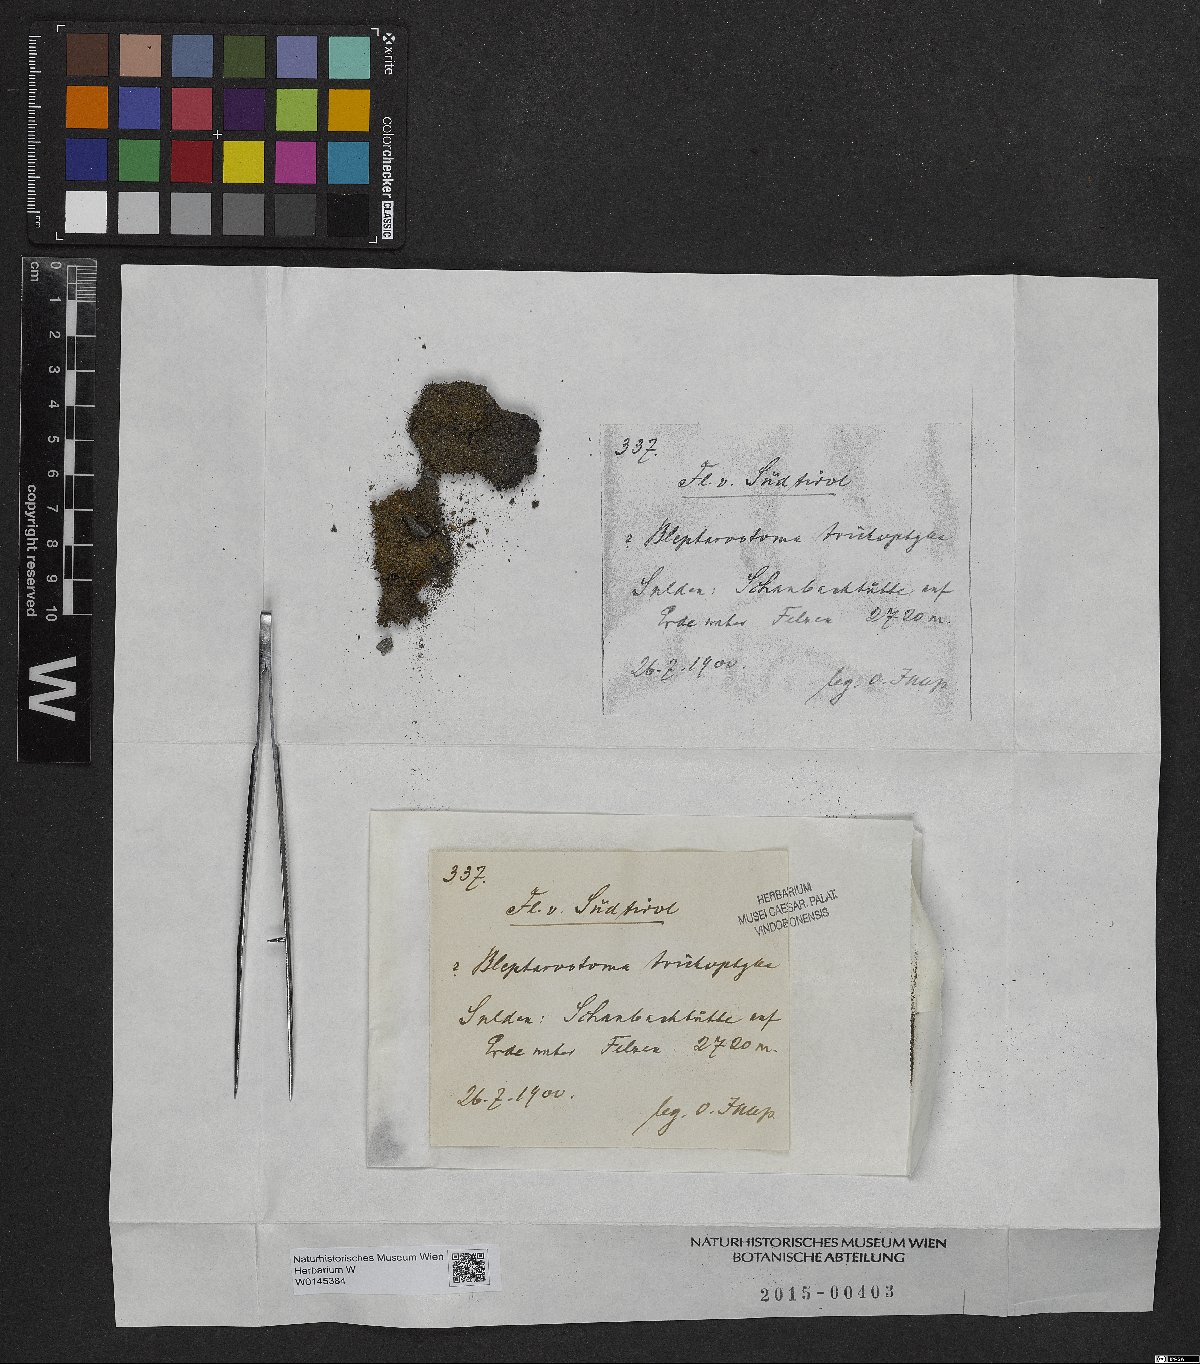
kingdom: Plantae
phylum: Marchantiophyta
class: Jungermanniopsida
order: Jungermanniales
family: Blepharostomataceae
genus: Blepharostoma
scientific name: Blepharostoma trichophyllum
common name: Hairy threadwort
